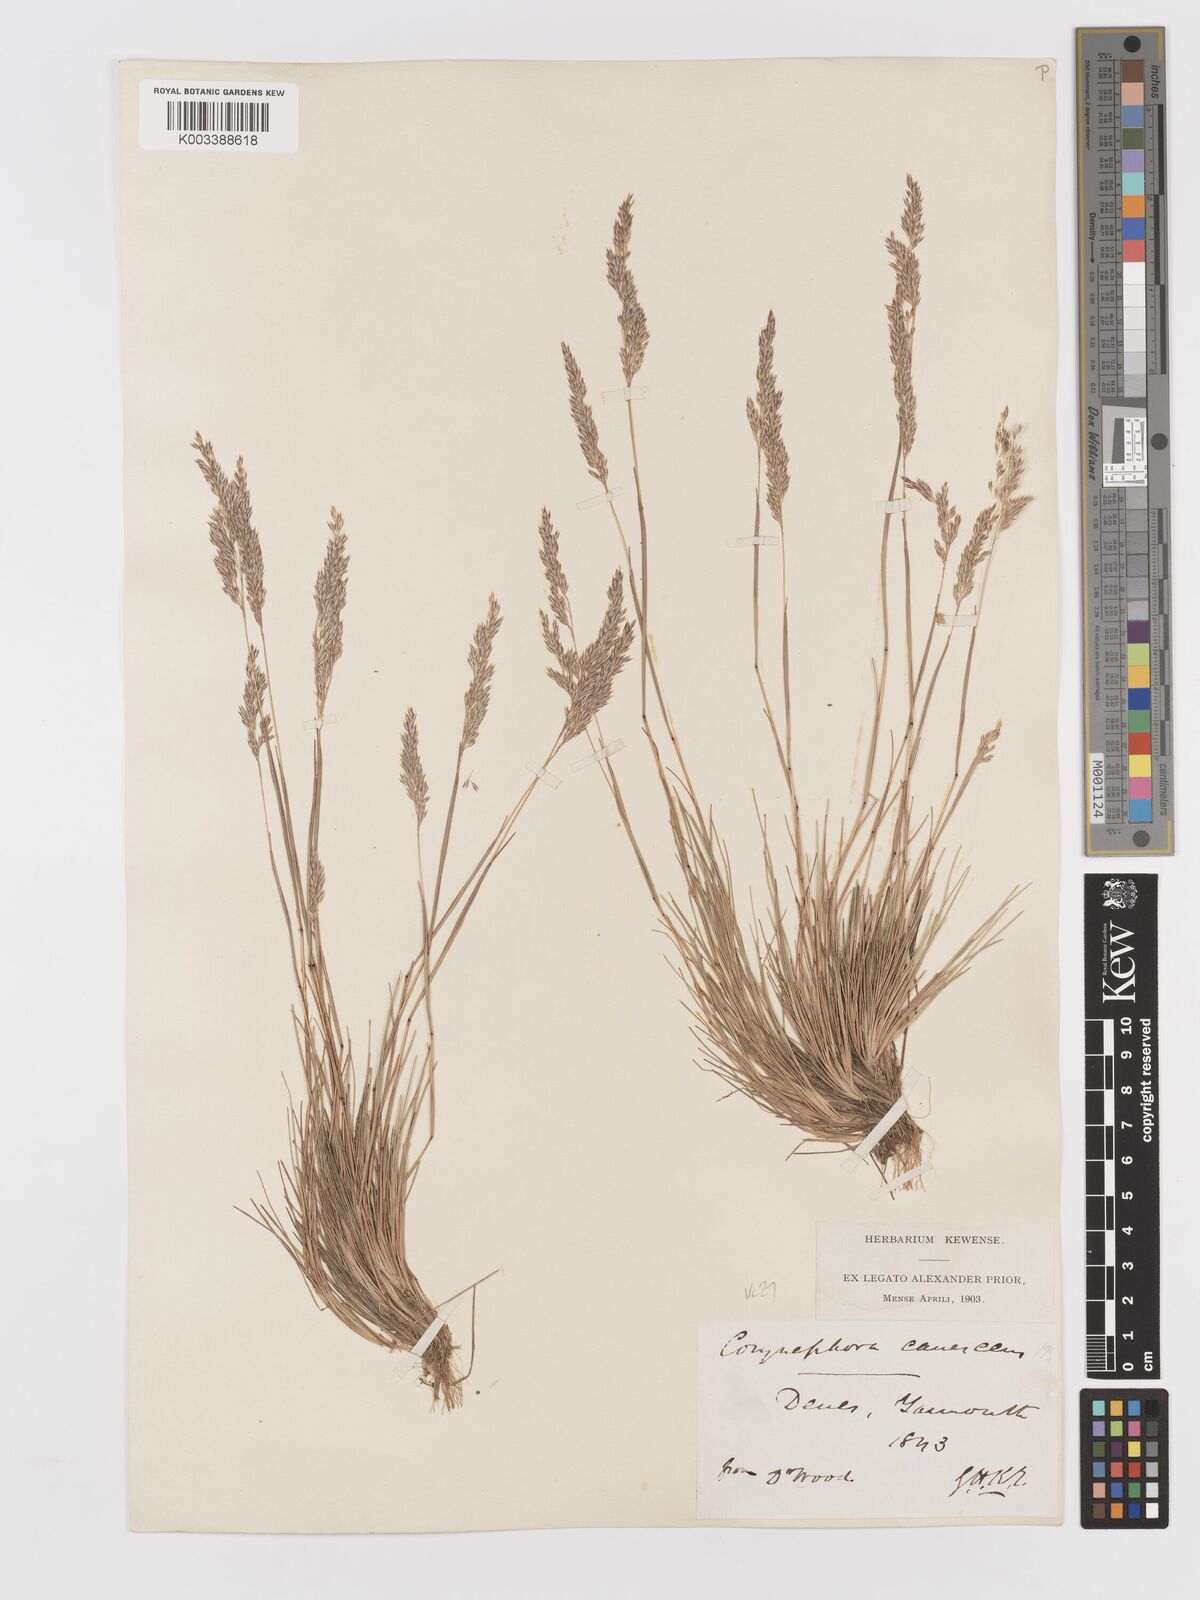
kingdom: Plantae
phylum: Tracheophyta
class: Liliopsida
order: Poales
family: Poaceae
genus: Corynephorus
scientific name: Corynephorus canescens
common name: Grey hair-grass
